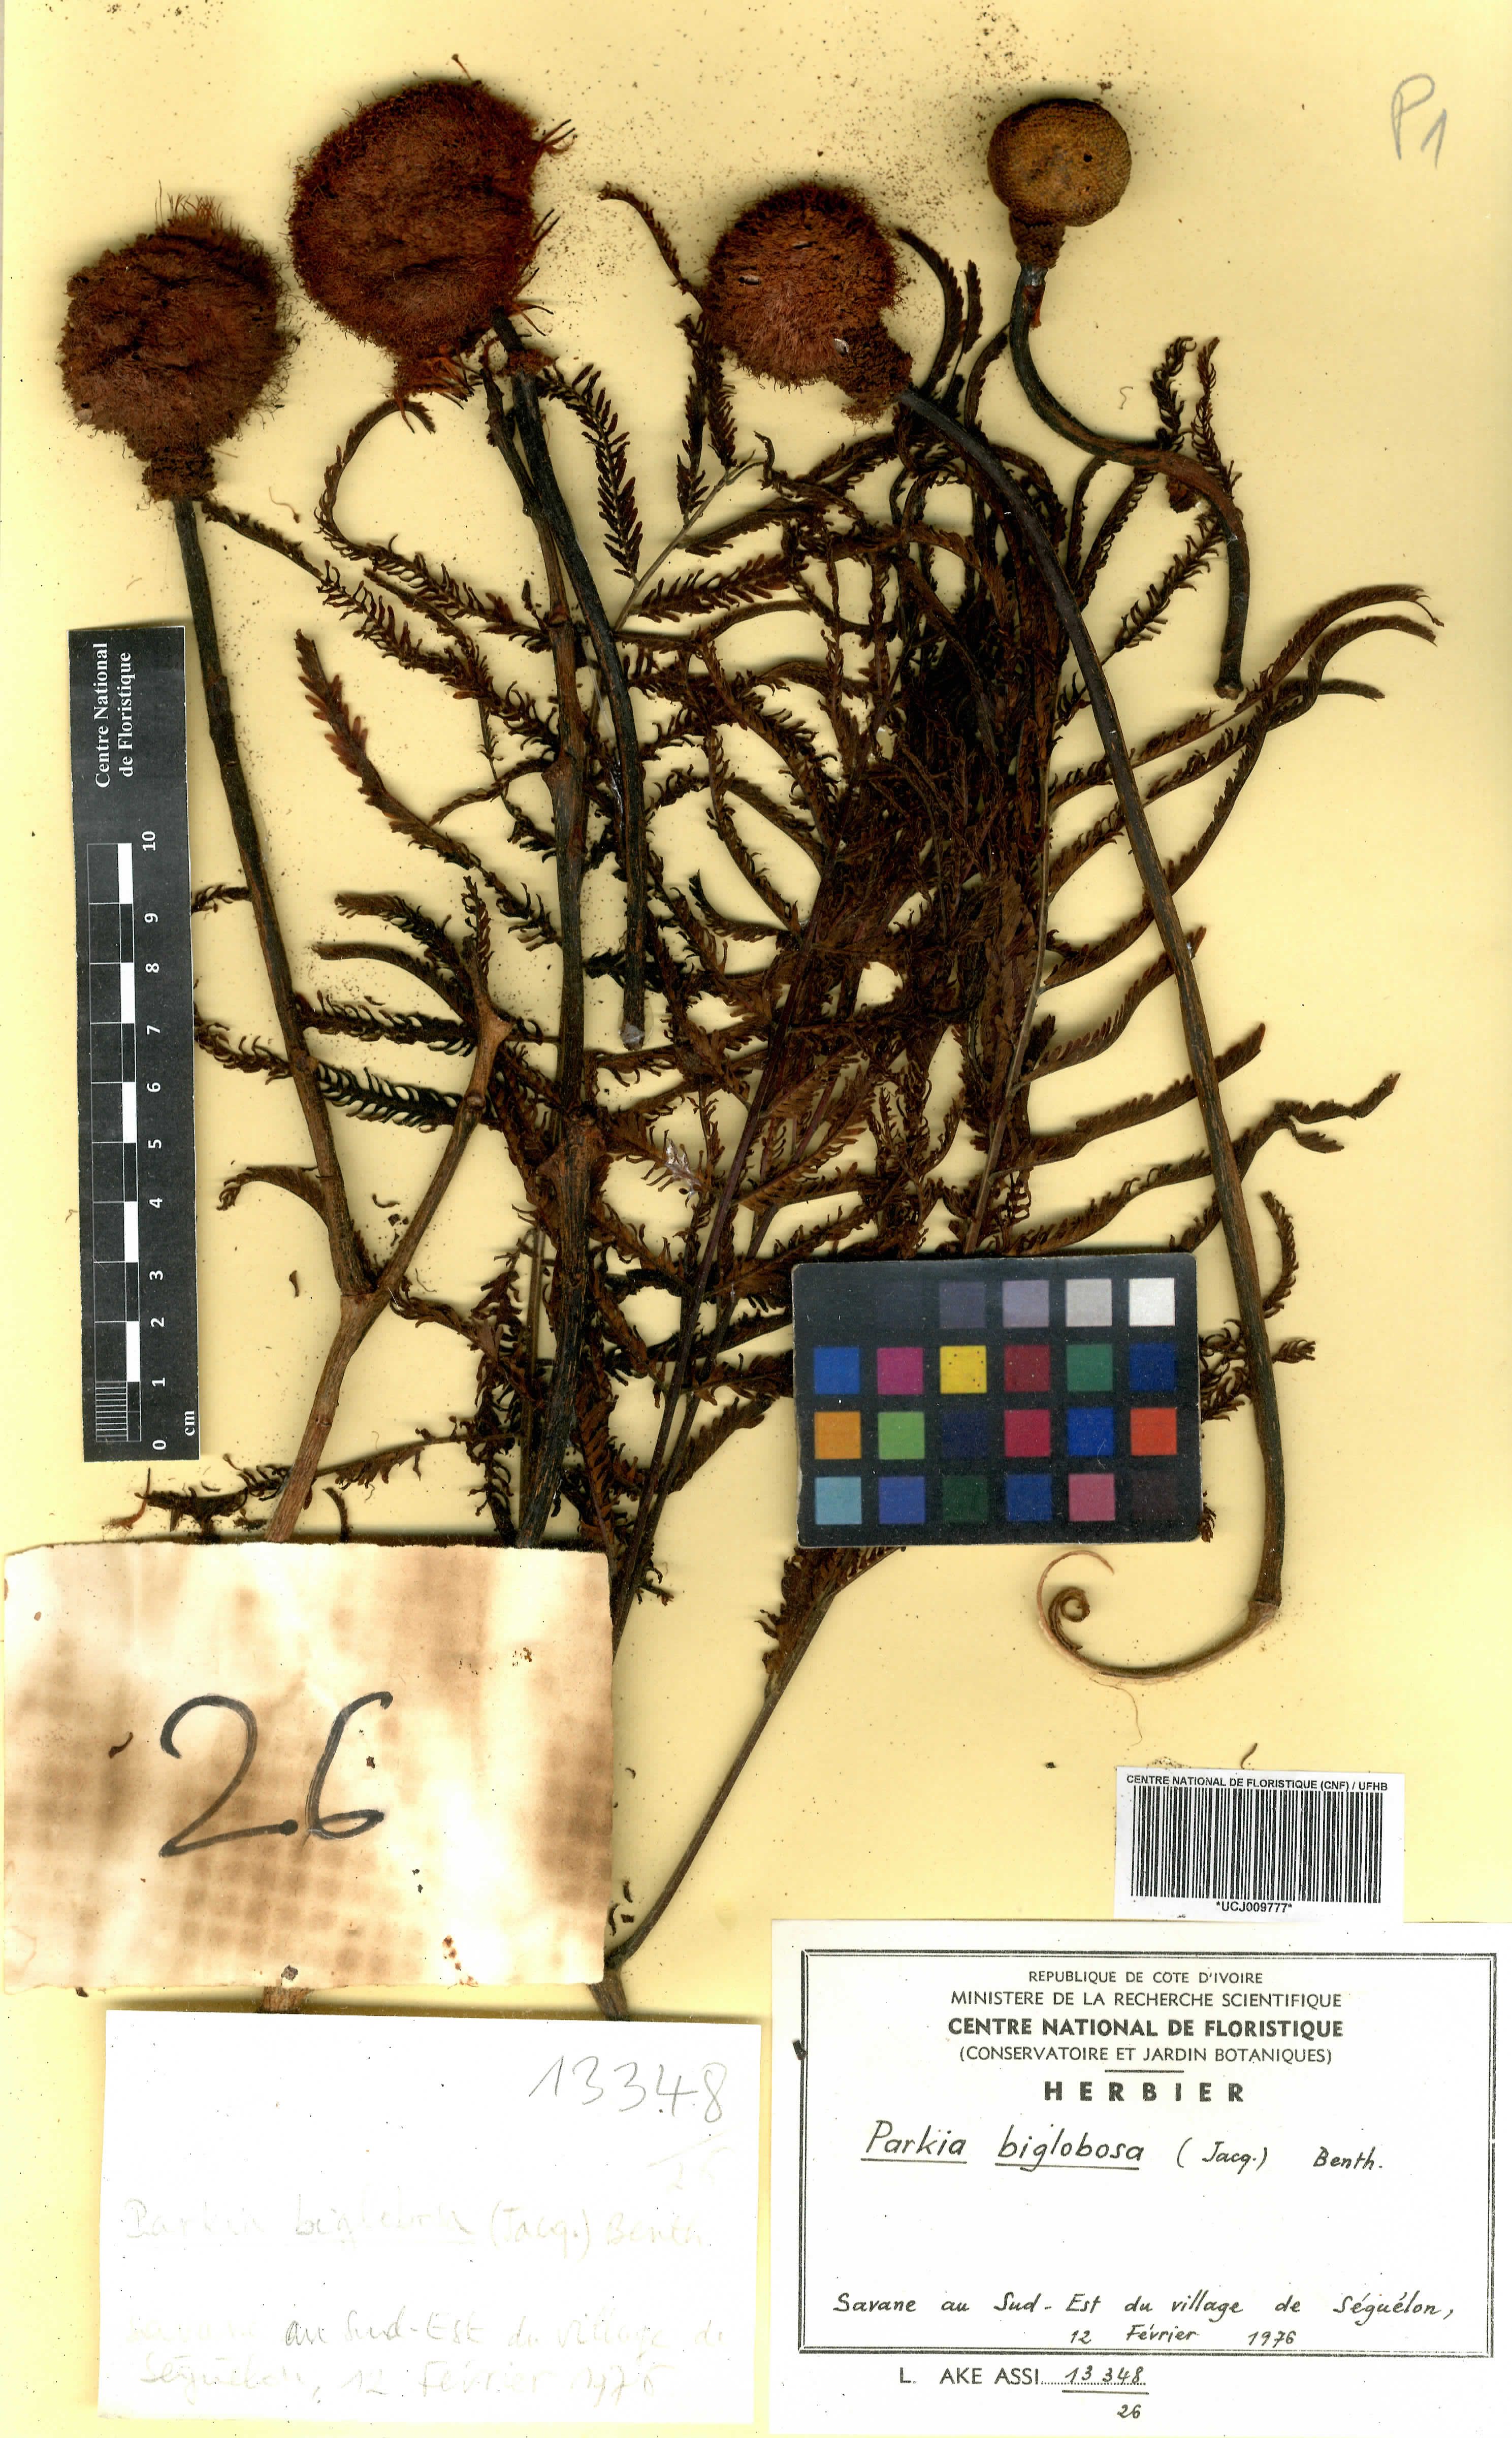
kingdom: Plantae
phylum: Tracheophyta
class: Magnoliopsida
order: Fabales
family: Fabaceae
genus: Parkia
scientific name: Parkia timoriana
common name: Legume
